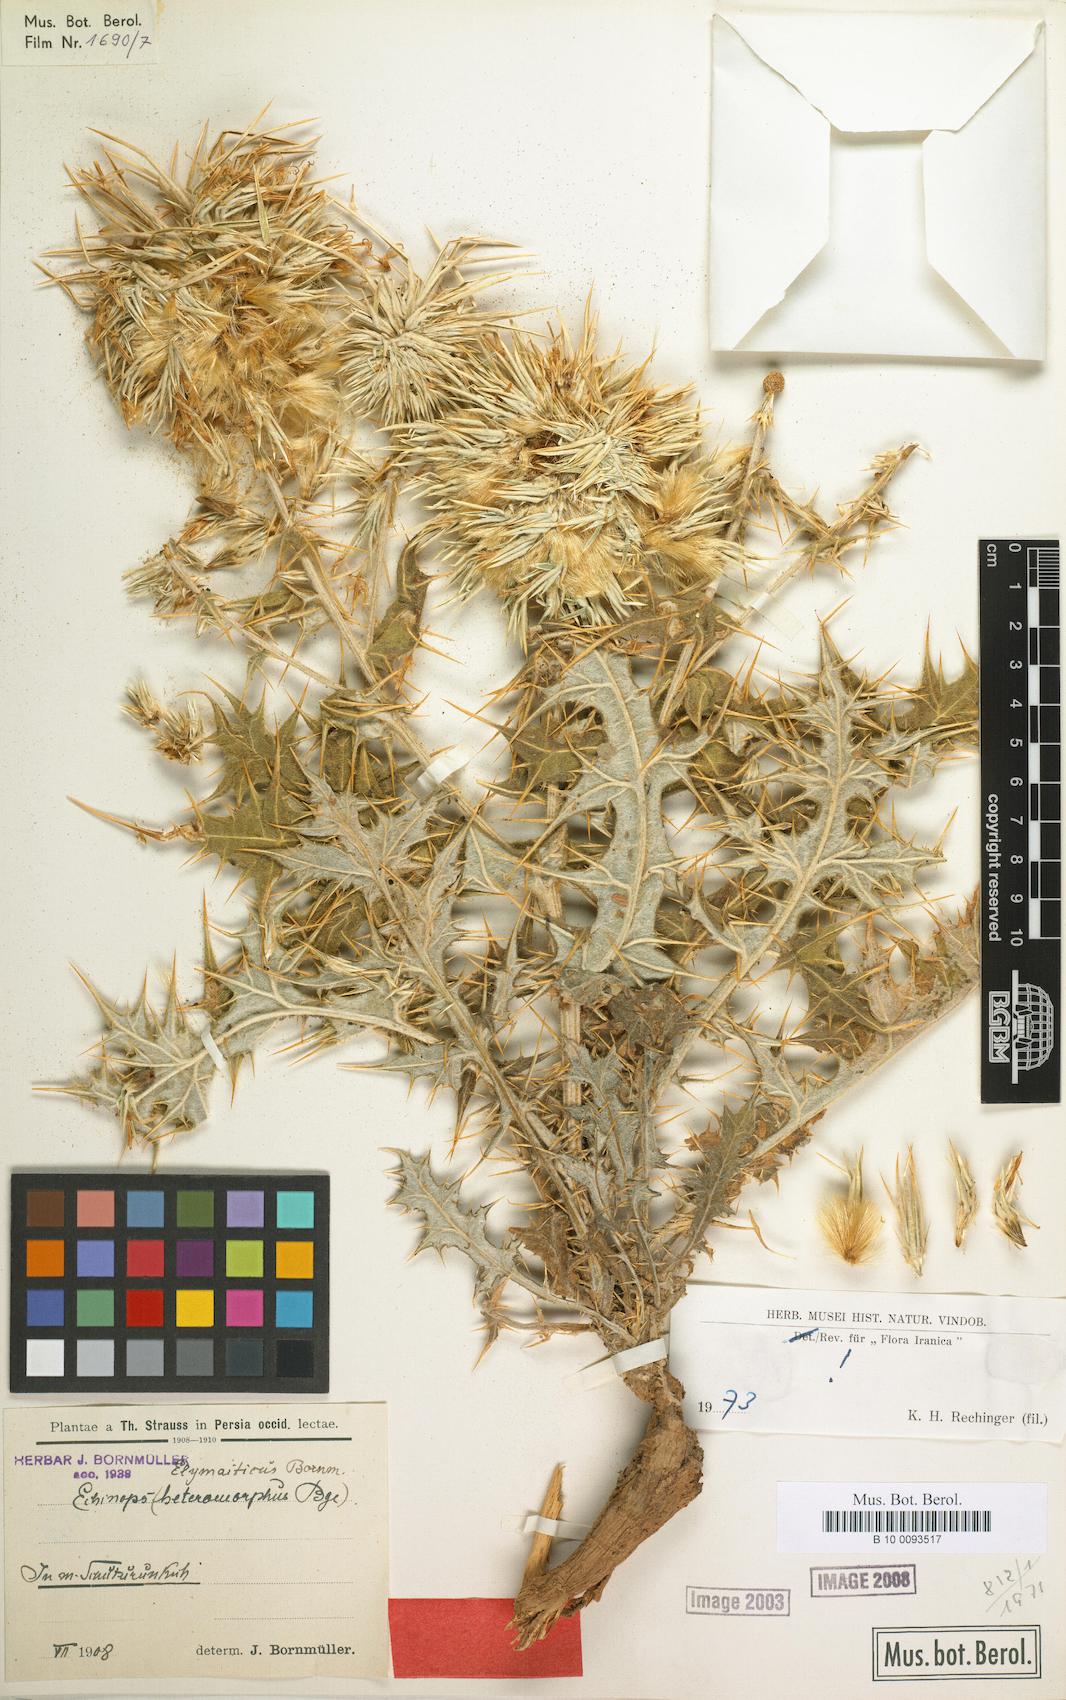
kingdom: Plantae
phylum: Tracheophyta
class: Magnoliopsida
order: Asterales
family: Asteraceae
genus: Echinops
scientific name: Echinops elymaiticus
